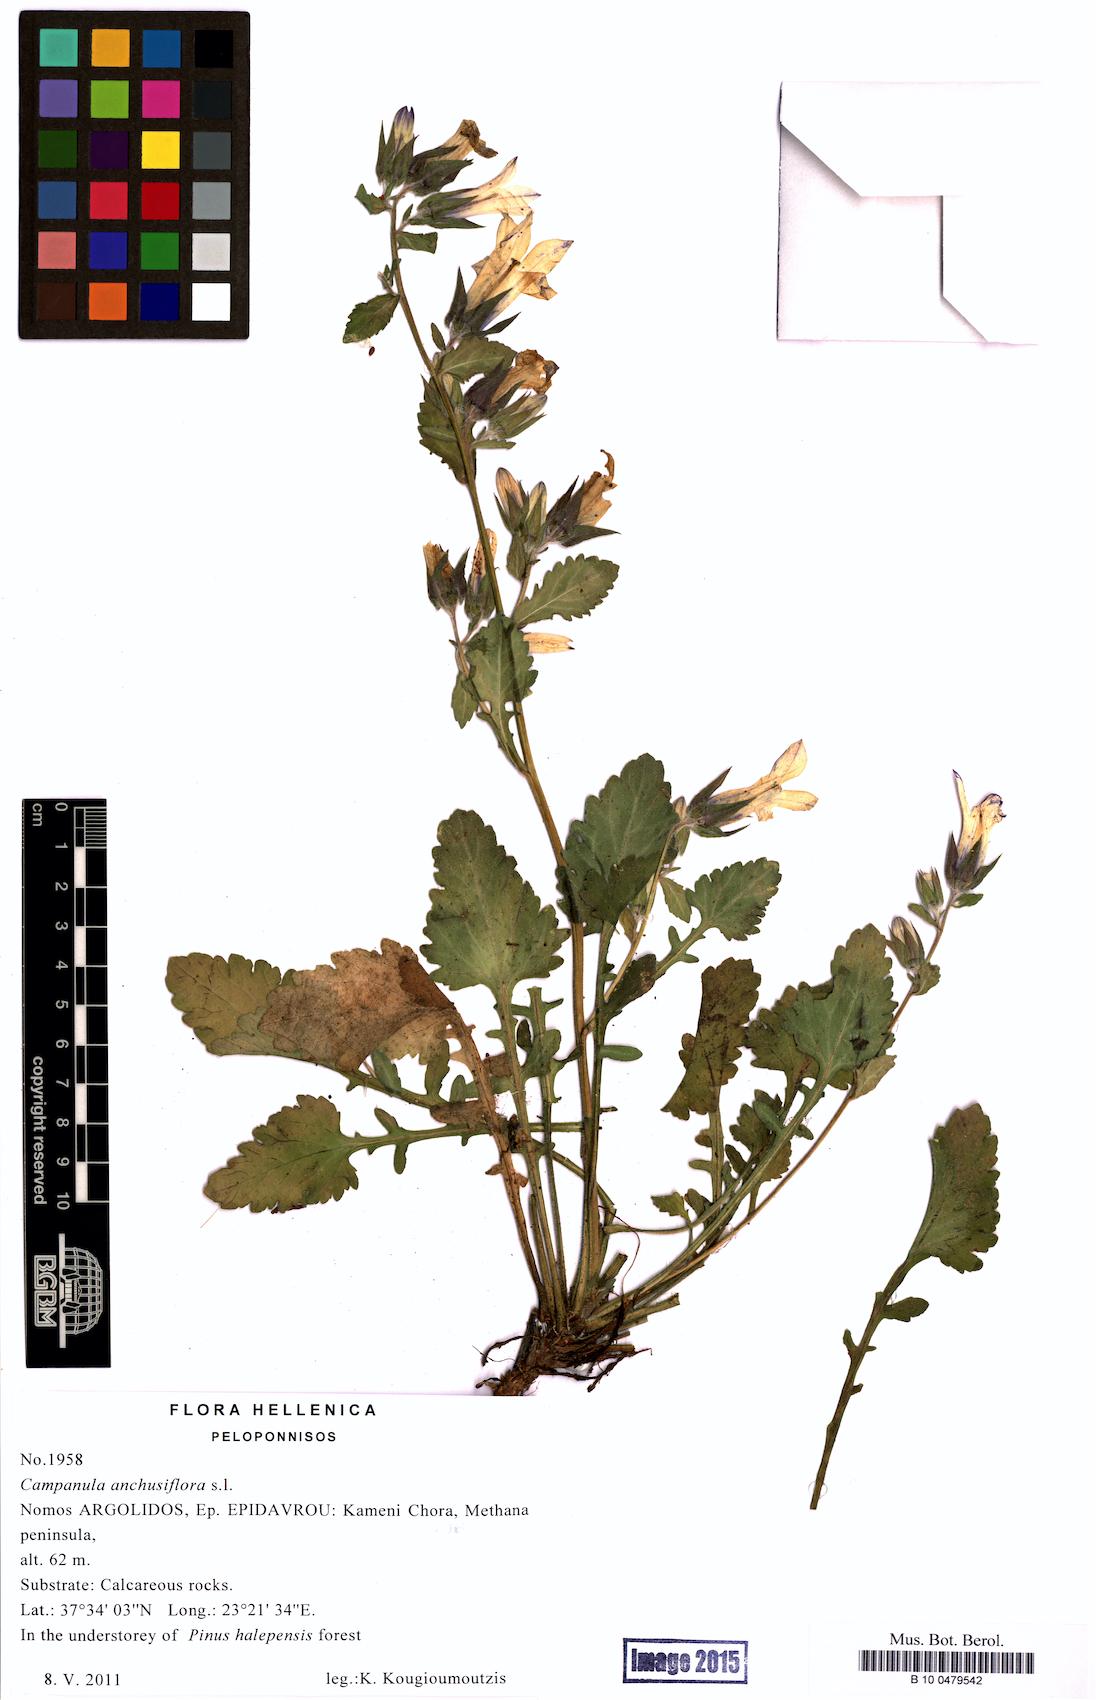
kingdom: Plantae
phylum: Tracheophyta
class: Magnoliopsida
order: Asterales
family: Campanulaceae
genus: Campanula
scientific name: Campanula anchusiflora
